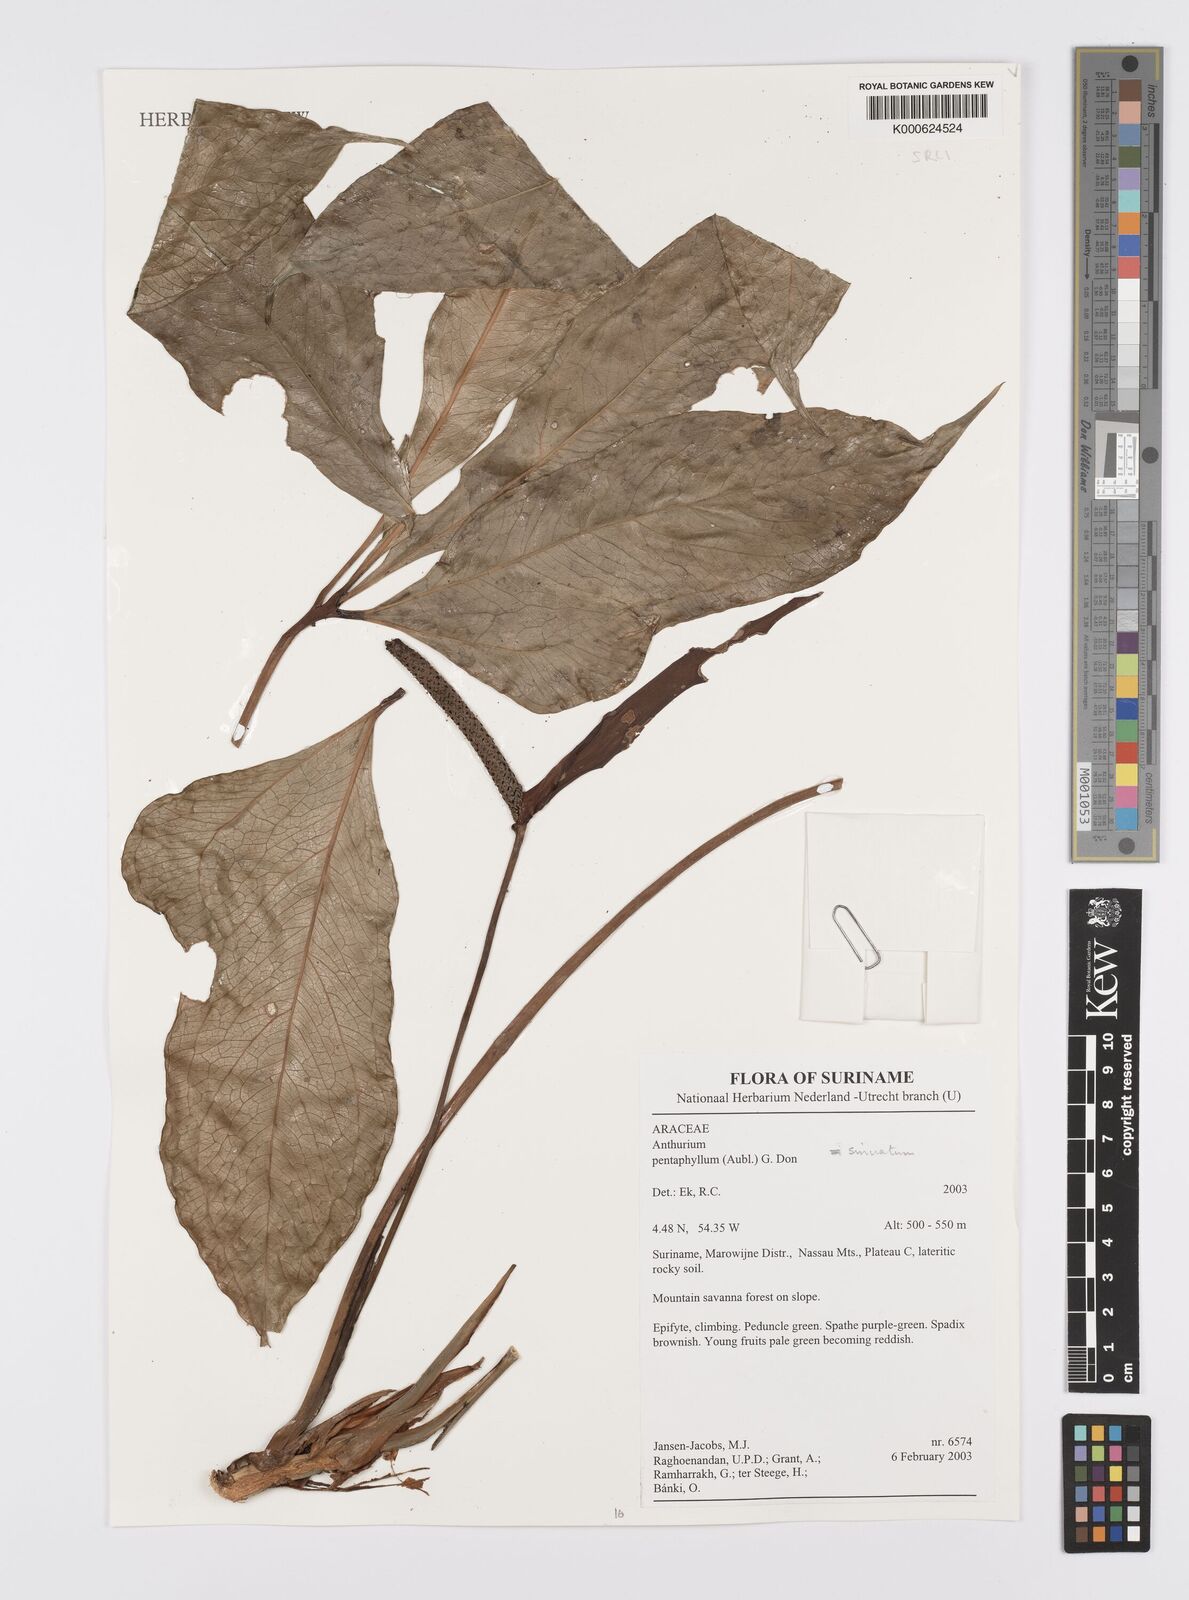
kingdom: Plantae
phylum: Tracheophyta
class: Liliopsida
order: Alismatales
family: Araceae
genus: Anthurium
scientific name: Anthurium sinuatum
